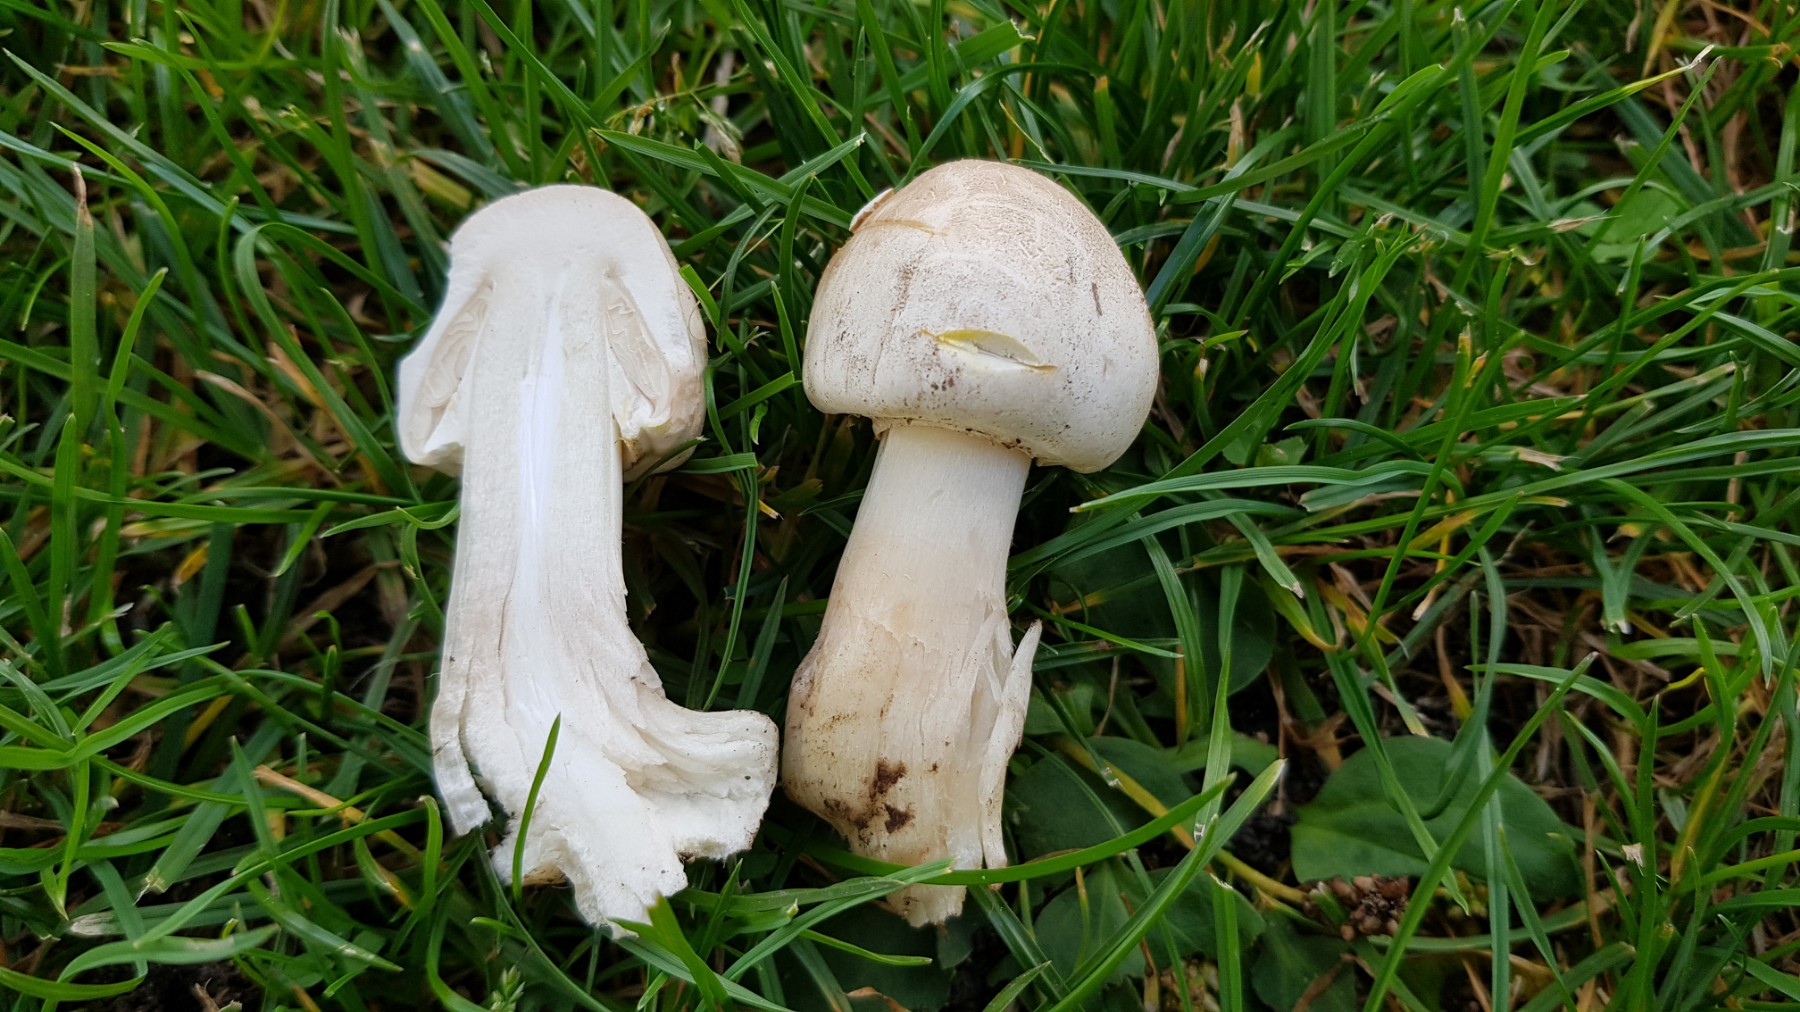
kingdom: Fungi
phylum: Basidiomycota
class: Agaricomycetes
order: Agaricales
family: Agaricaceae
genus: Agaricus
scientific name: Agaricus xanthodermus
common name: karbol-champignon
